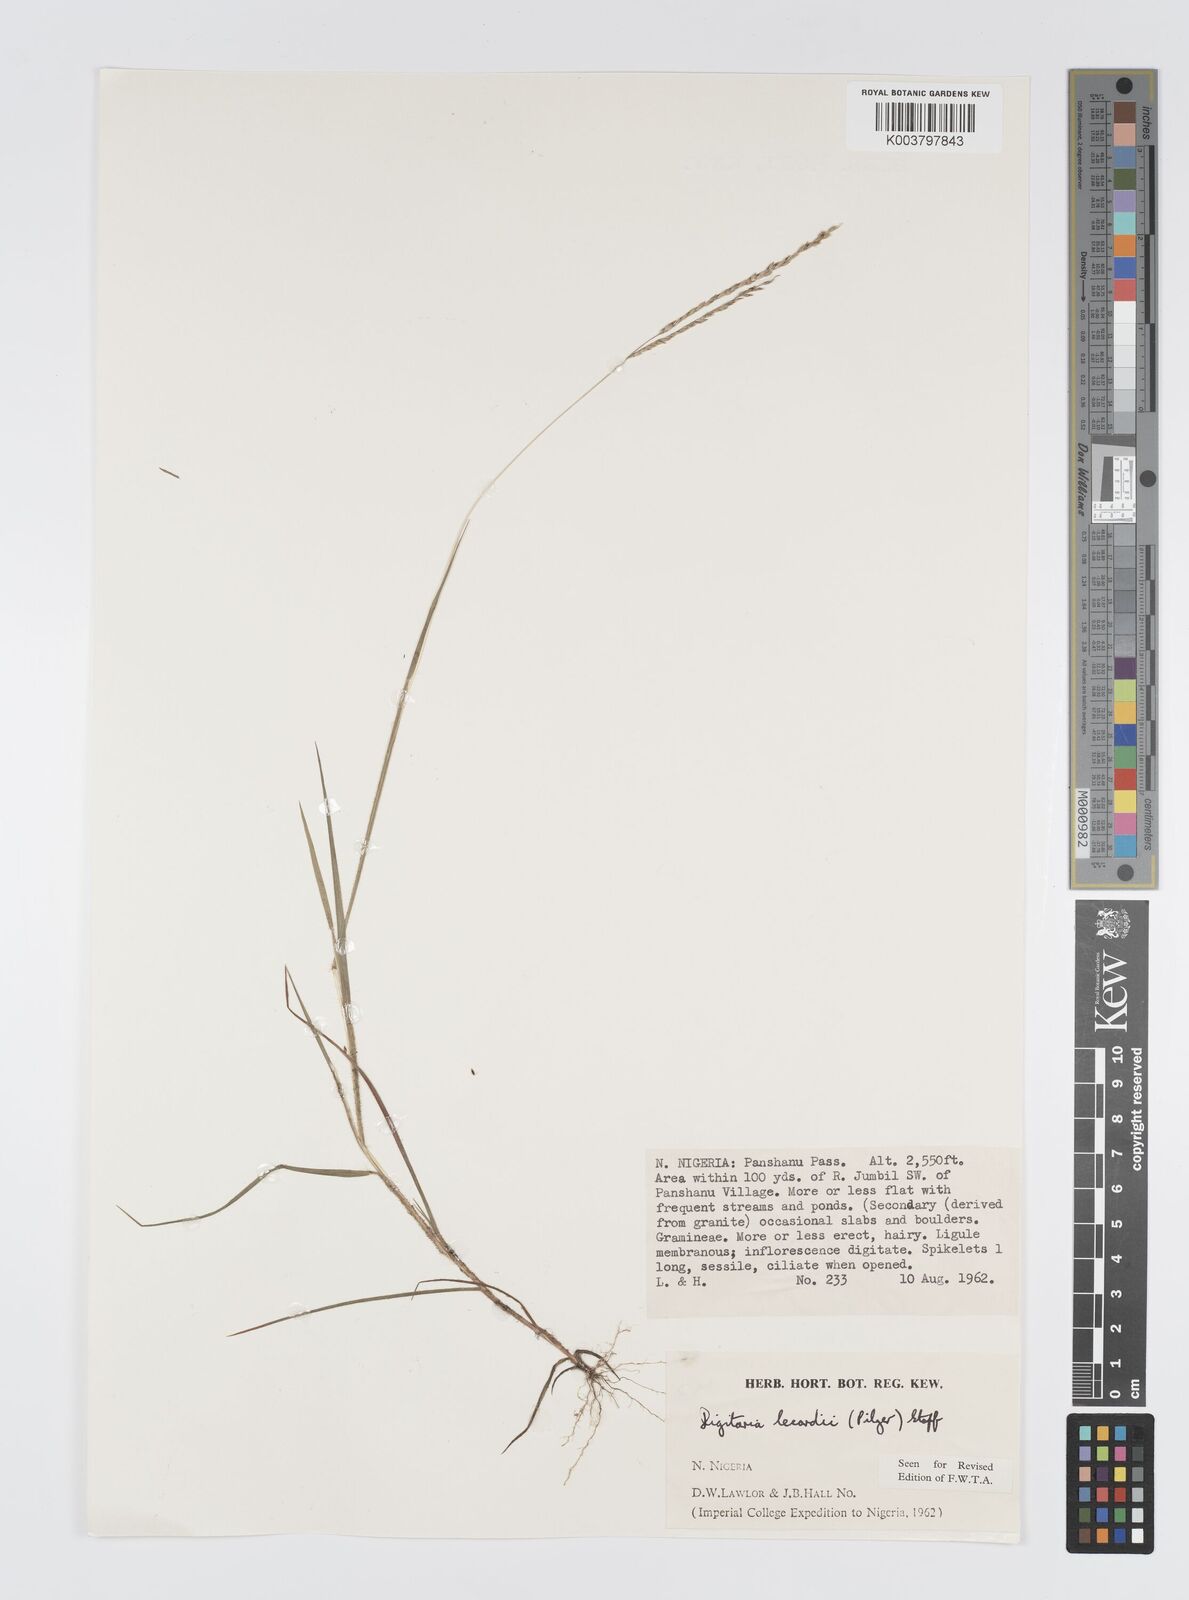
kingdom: Plantae
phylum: Tracheophyta
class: Liliopsida
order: Poales
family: Poaceae
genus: Digitaria
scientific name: Digitaria argillacea
